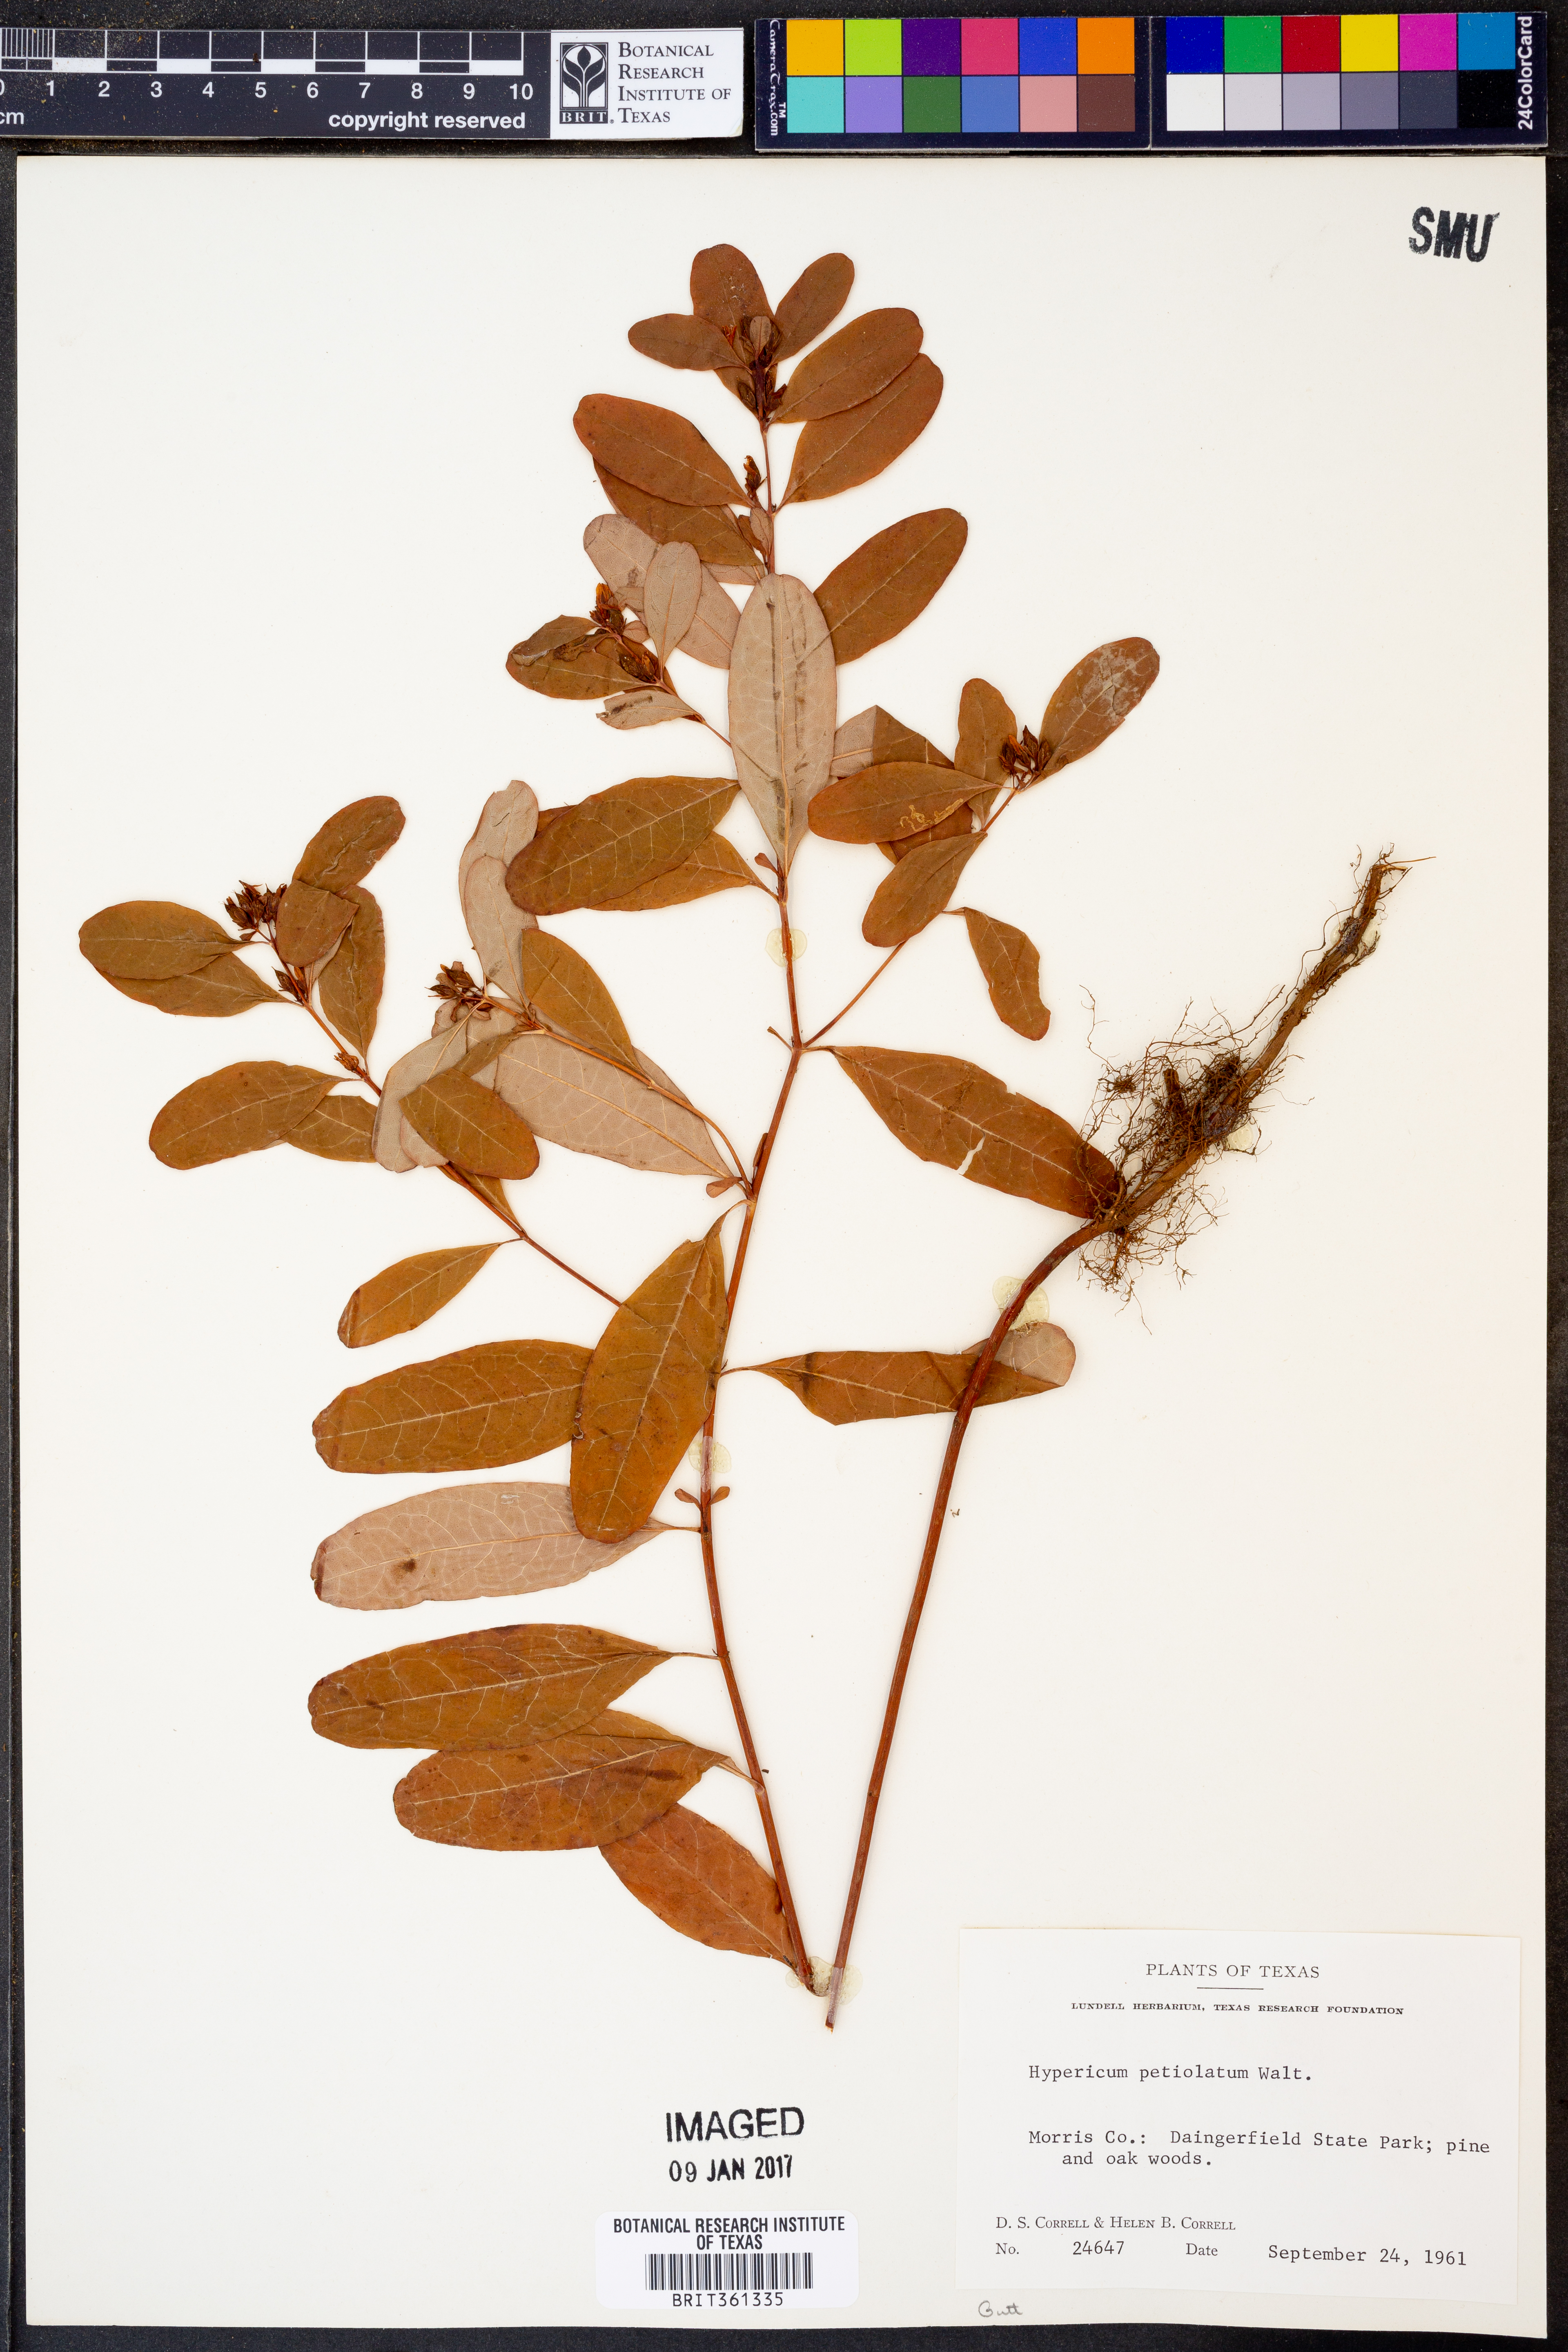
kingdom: Plantae
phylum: Tracheophyta
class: Magnoliopsida
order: Malpighiales
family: Hypericaceae
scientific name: Hypericaceae
